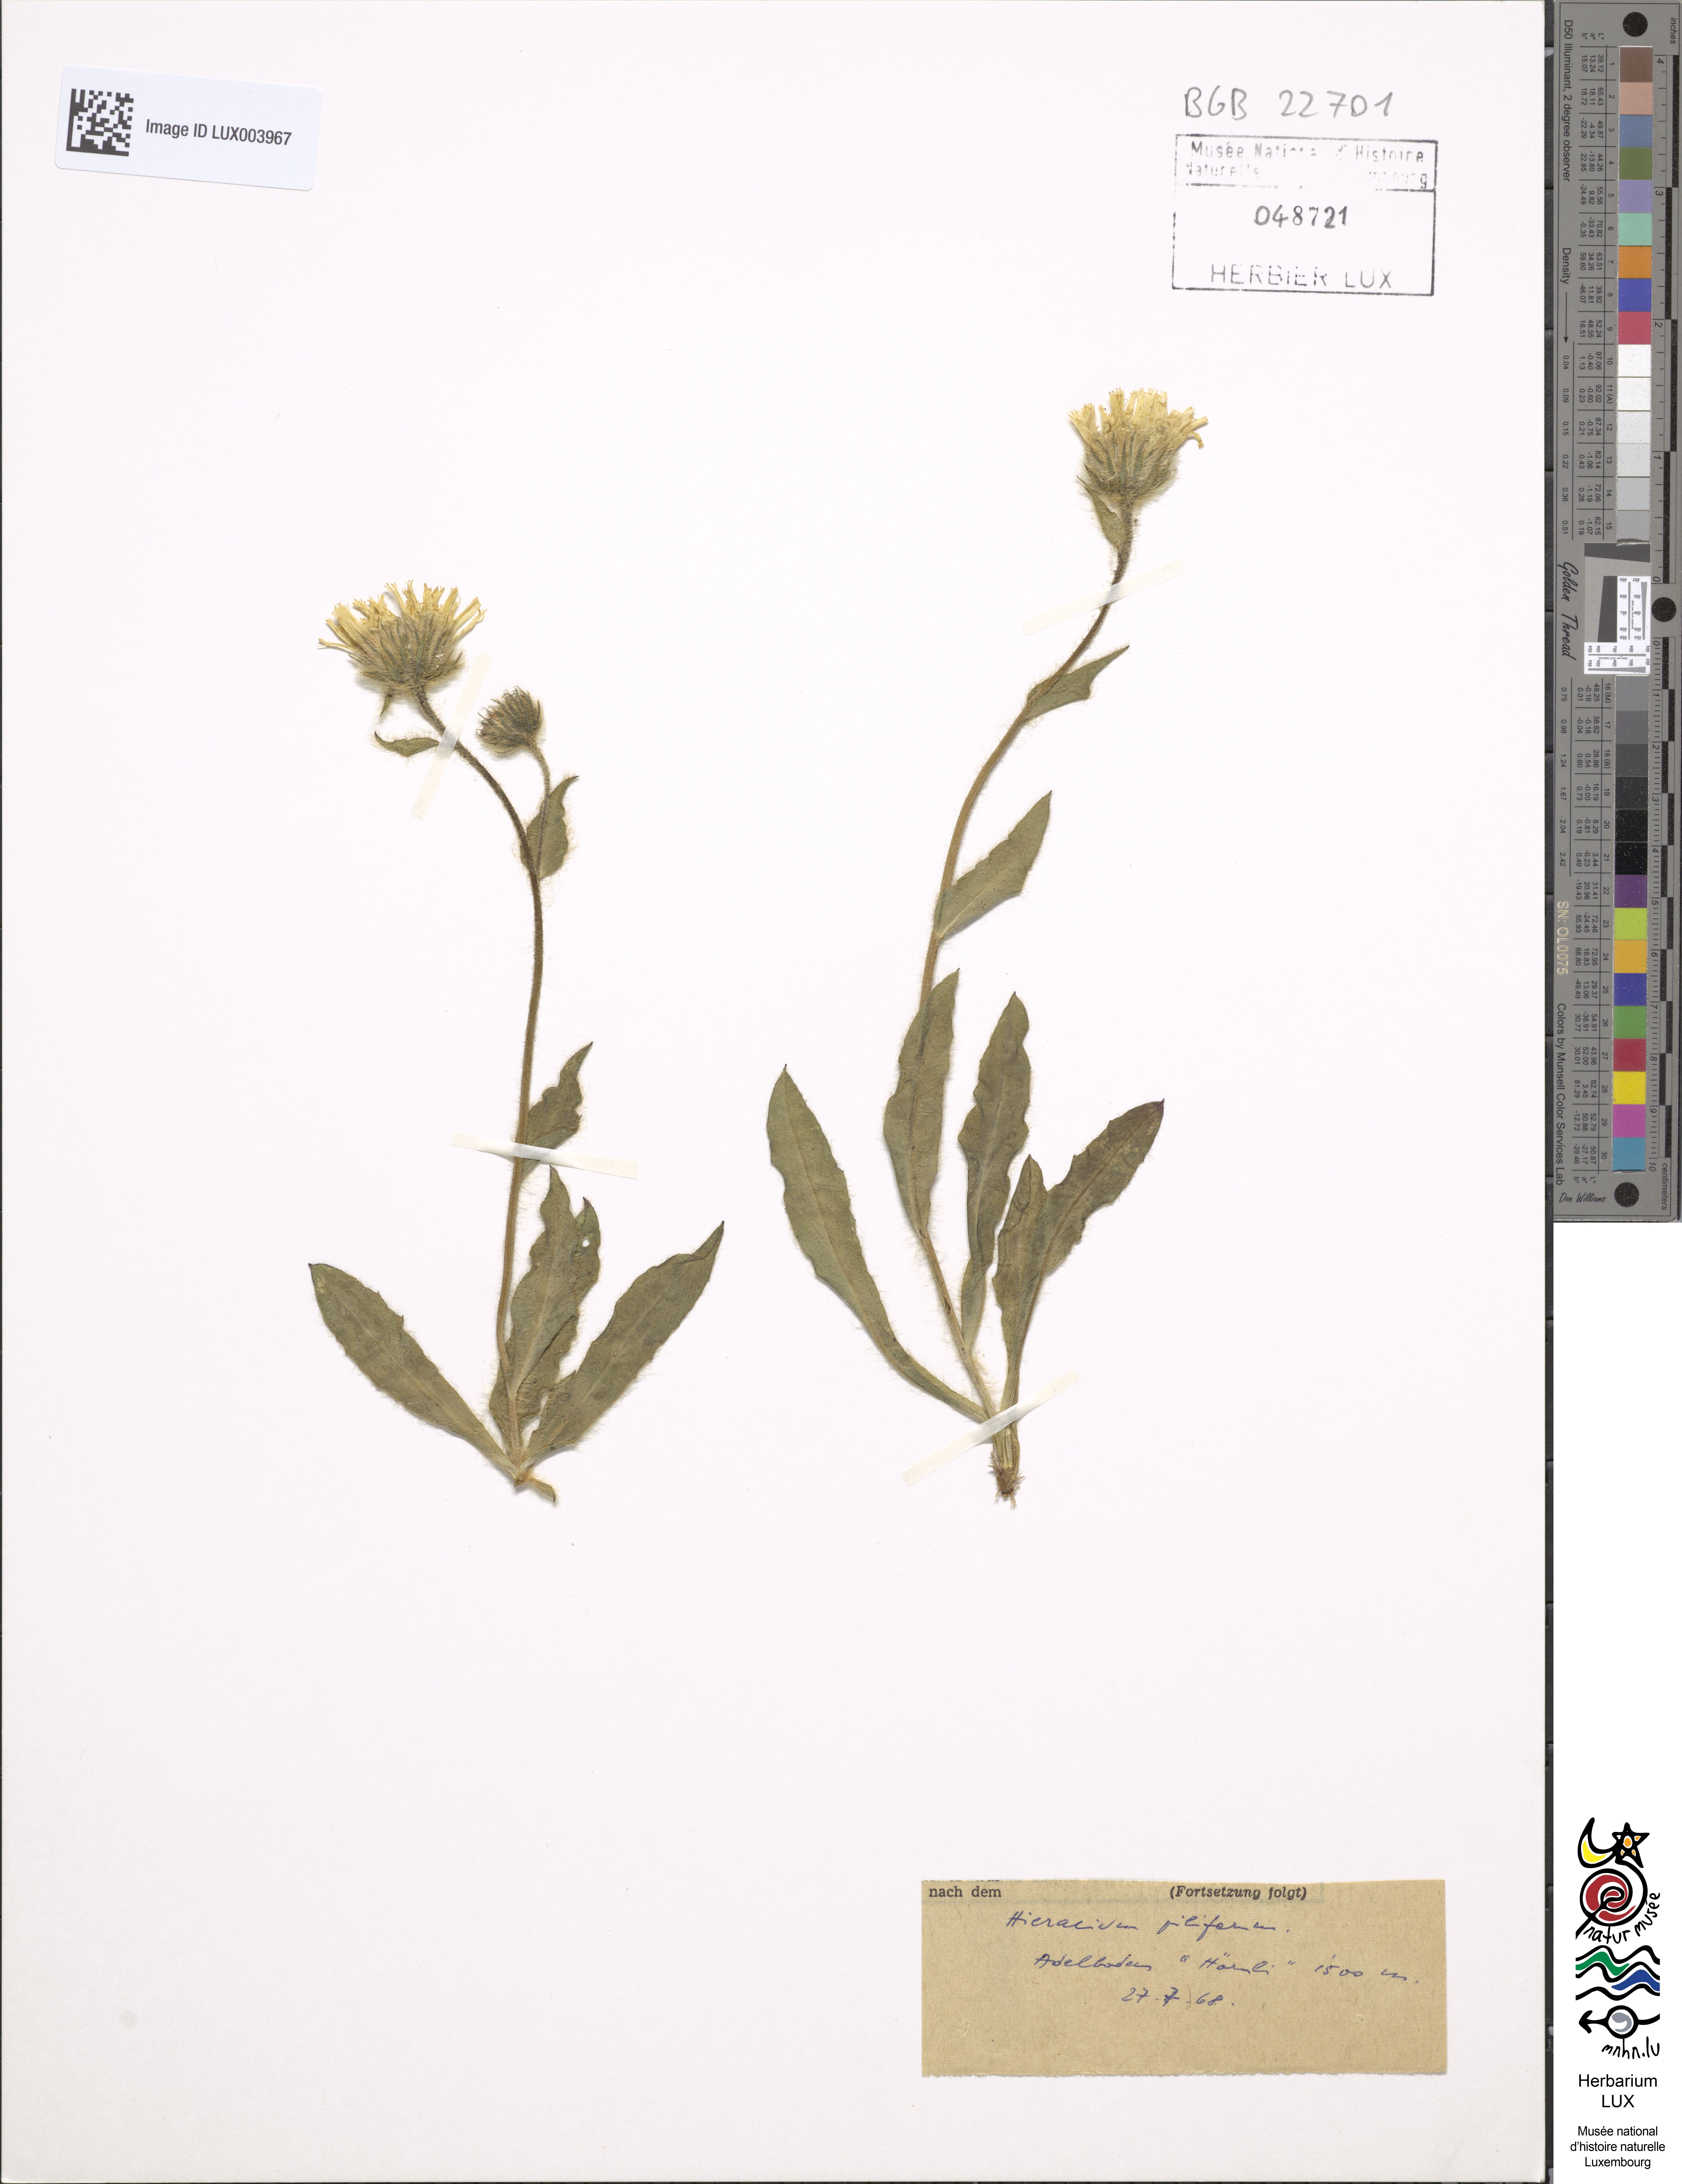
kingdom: Plantae
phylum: Tracheophyta
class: Magnoliopsida
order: Asterales
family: Asteraceae
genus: Hieracium
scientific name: Hieracium piliferum
